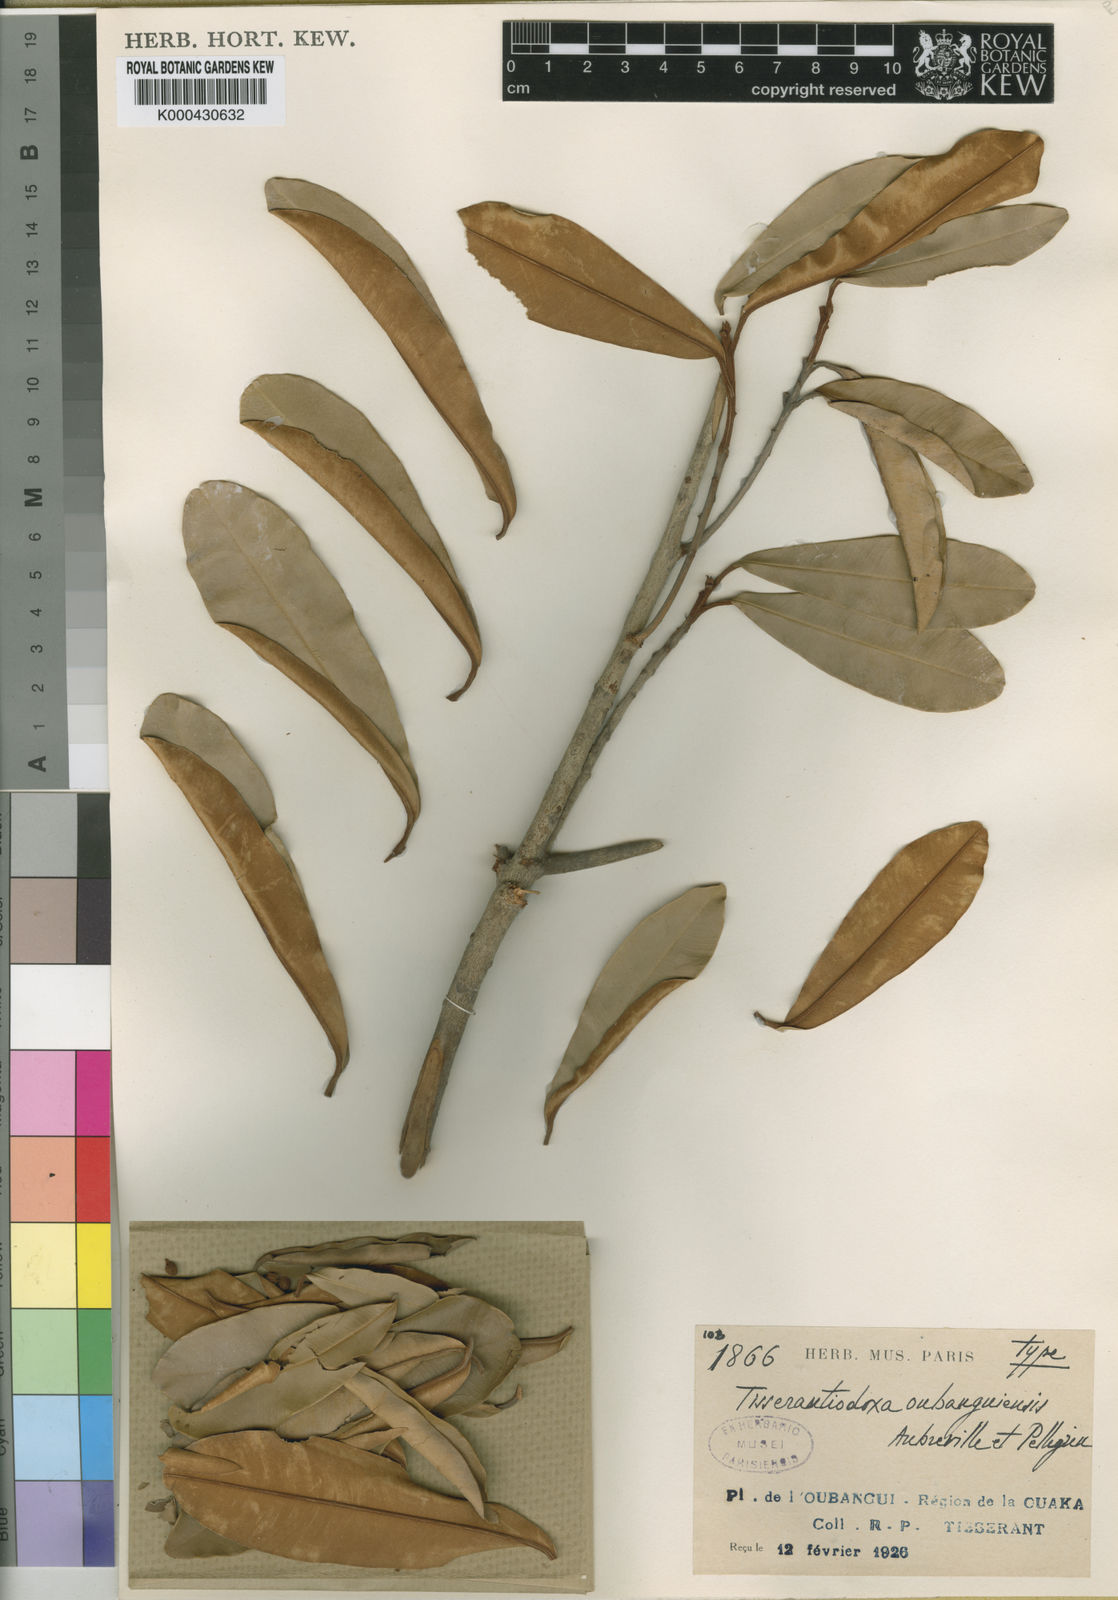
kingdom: Plantae
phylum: Tracheophyta
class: Magnoliopsida
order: Ericales
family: Sapotaceae
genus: Englerophytum
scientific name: Englerophytum magalismontanum
